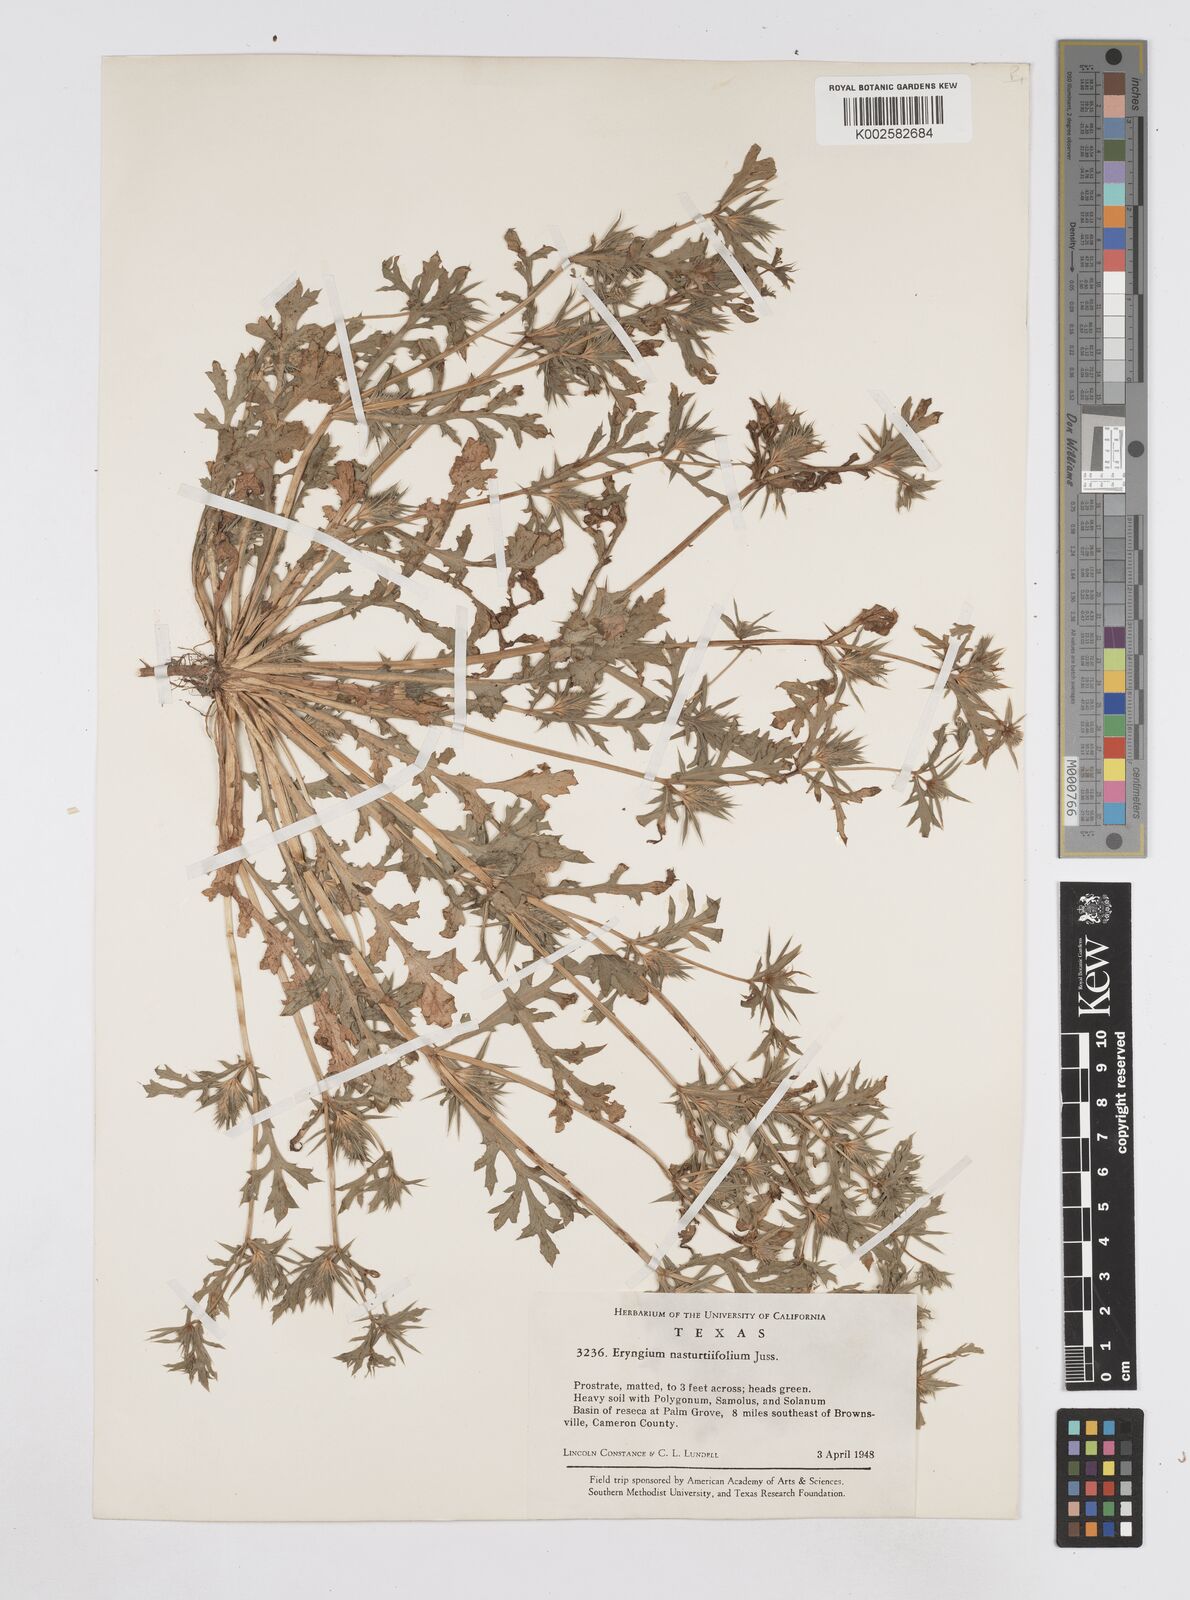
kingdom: Plantae
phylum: Tracheophyta
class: Magnoliopsida
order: Apiales
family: Apiaceae
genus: Eryngium
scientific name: Eryngium nasturtiifolium
